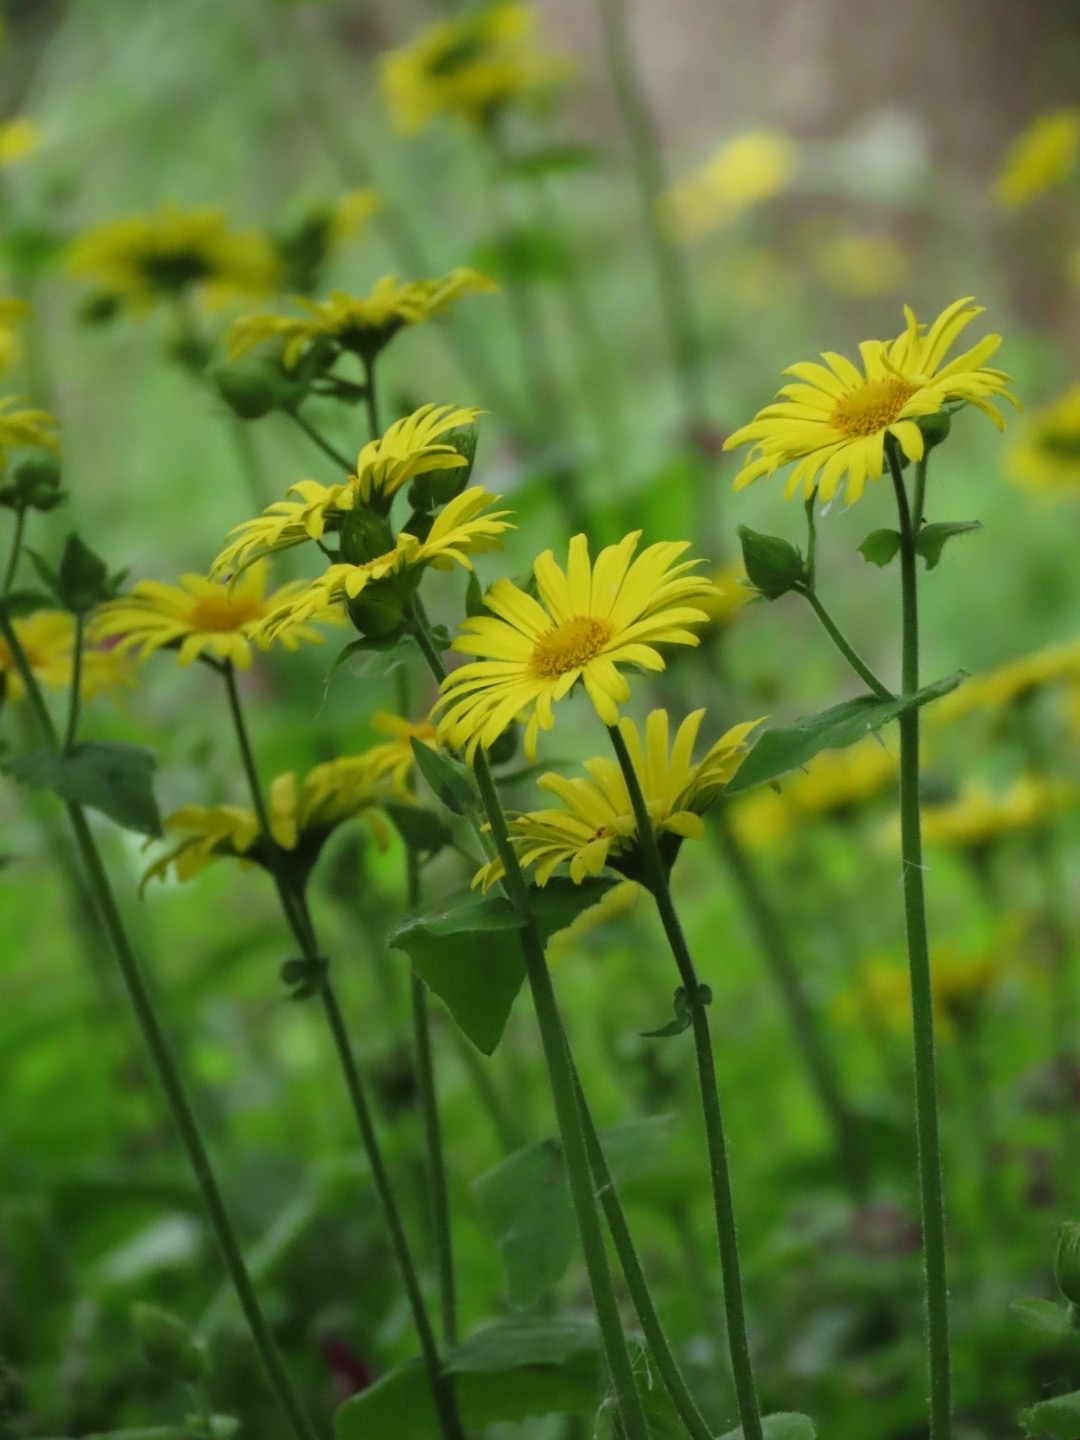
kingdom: Plantae
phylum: Tracheophyta
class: Magnoliopsida
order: Asterales
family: Asteraceae
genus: Doronicum
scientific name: Doronicum pardalianches
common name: Hjertebladet gemserod
